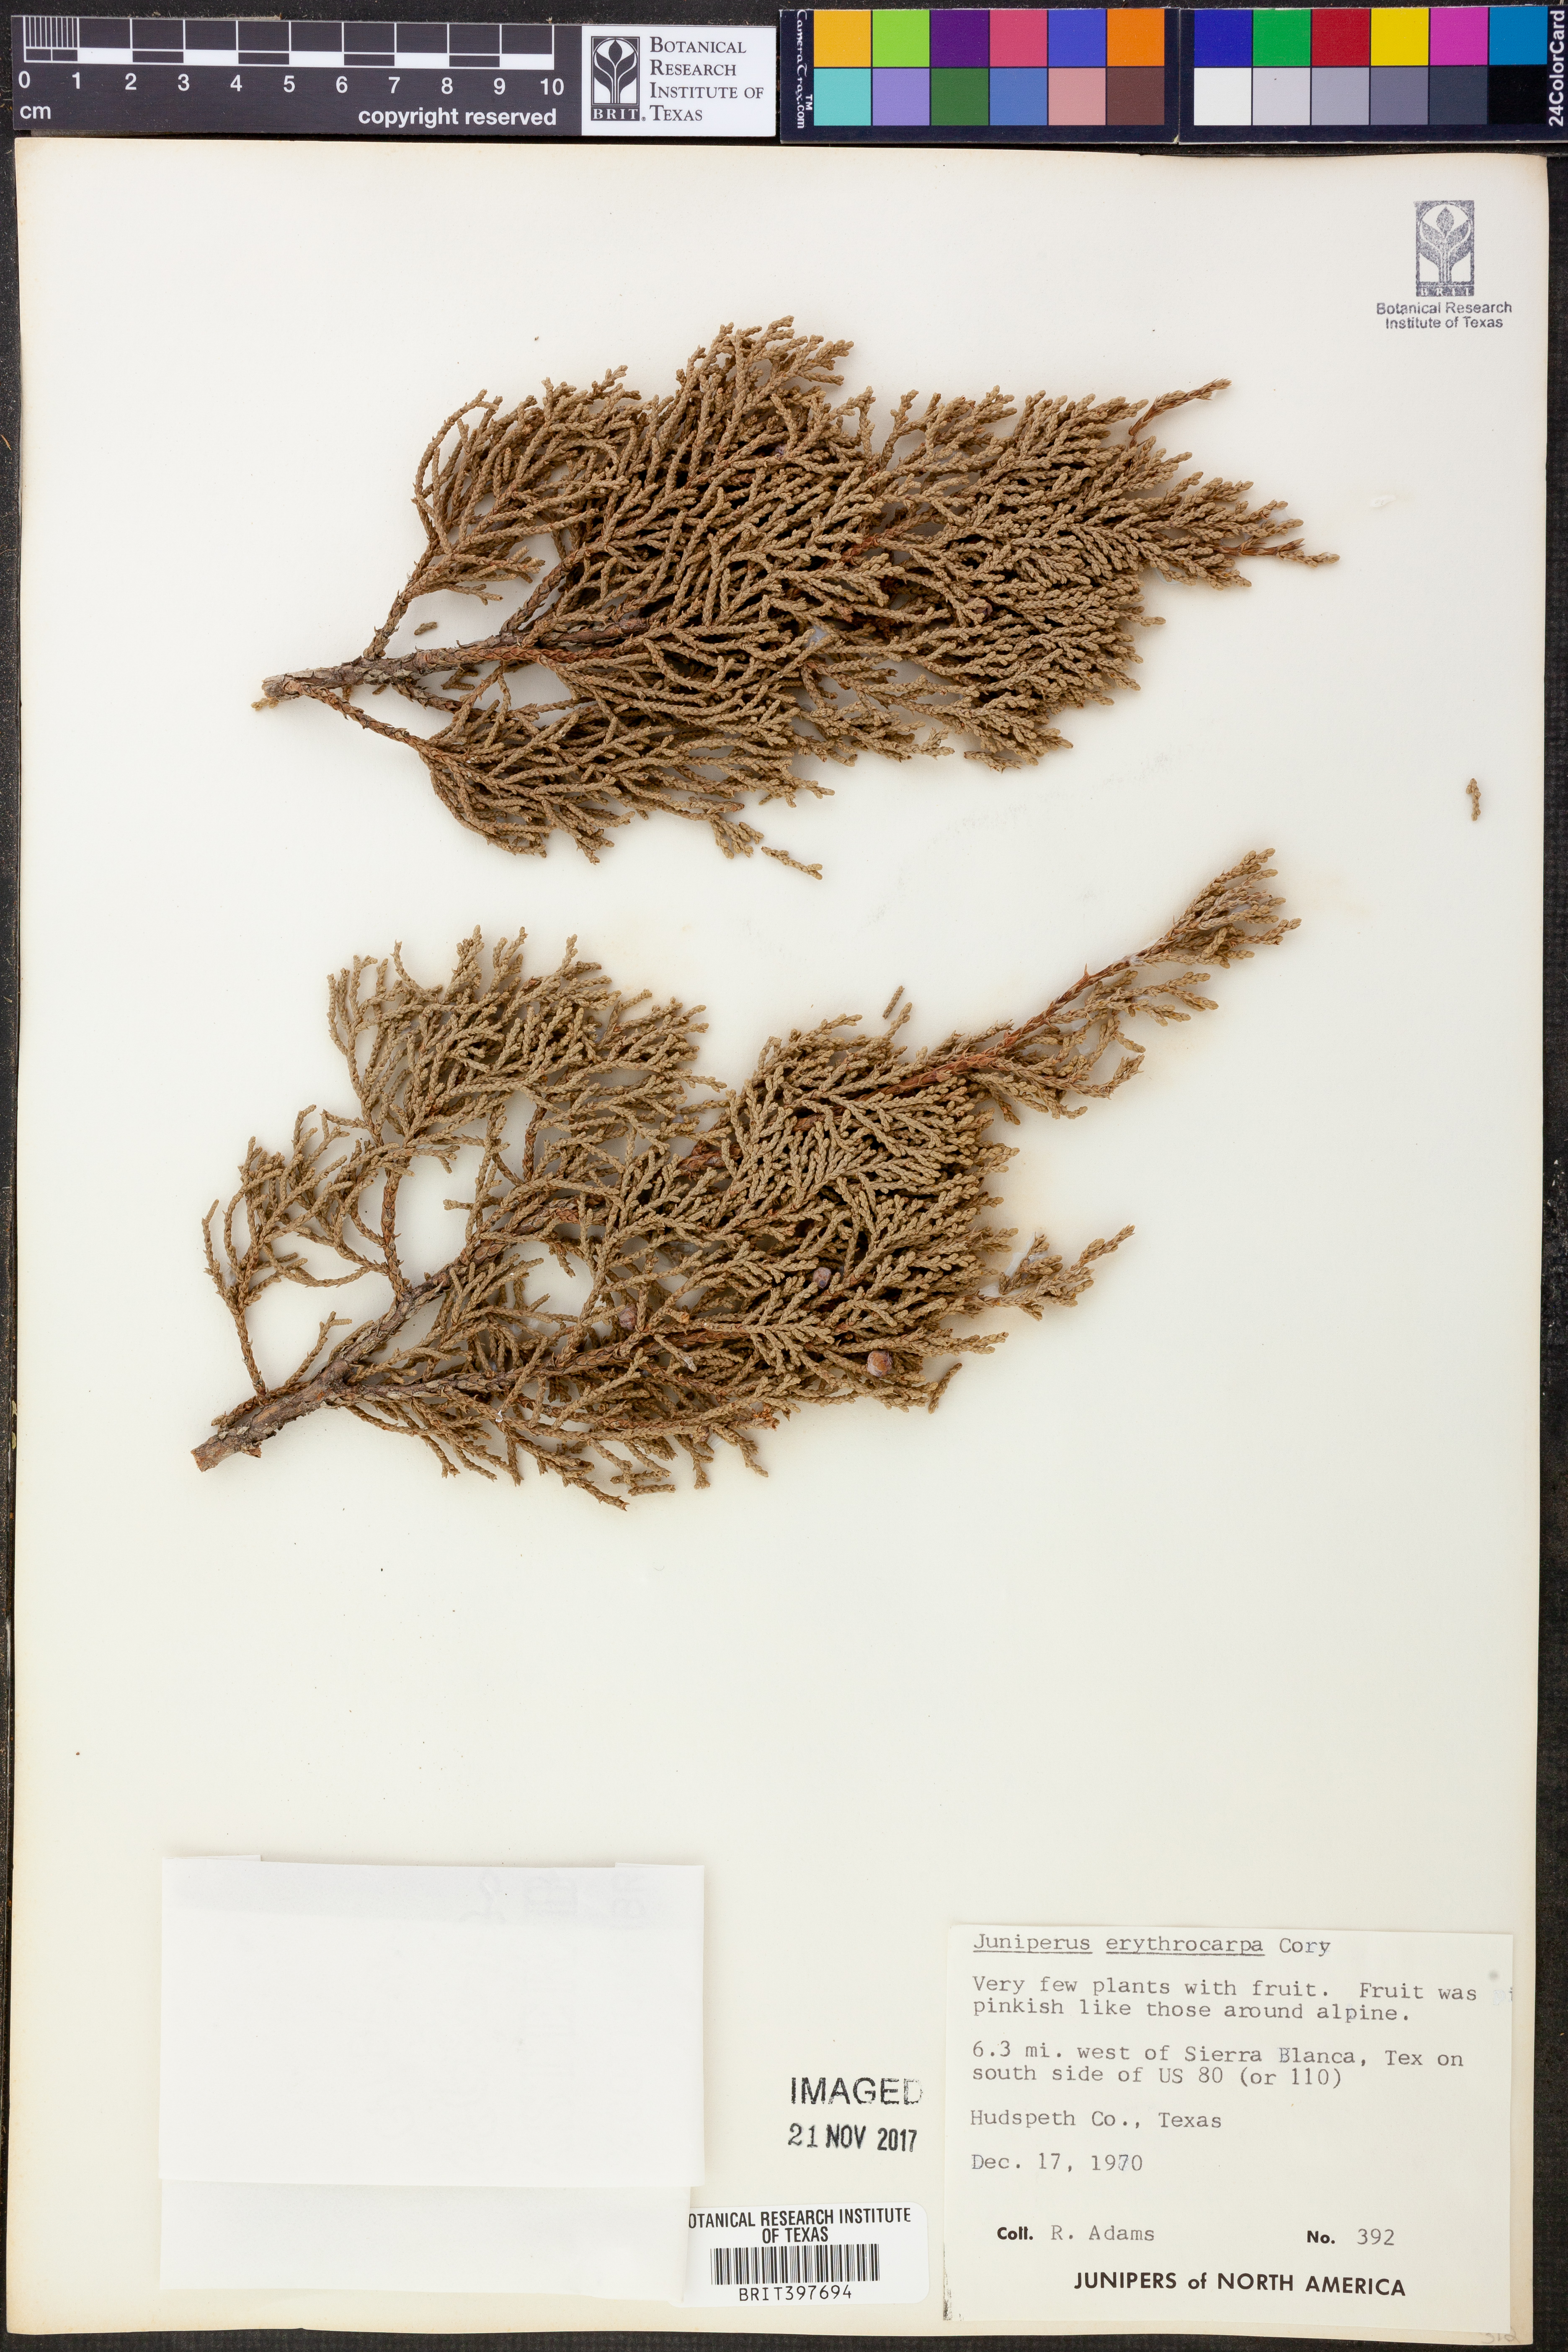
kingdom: Plantae
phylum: Tracheophyta
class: Pinopsida
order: Pinales
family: Cupressaceae
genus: Juniperus
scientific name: Juniperus pinchotii
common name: Pinchot juniper
